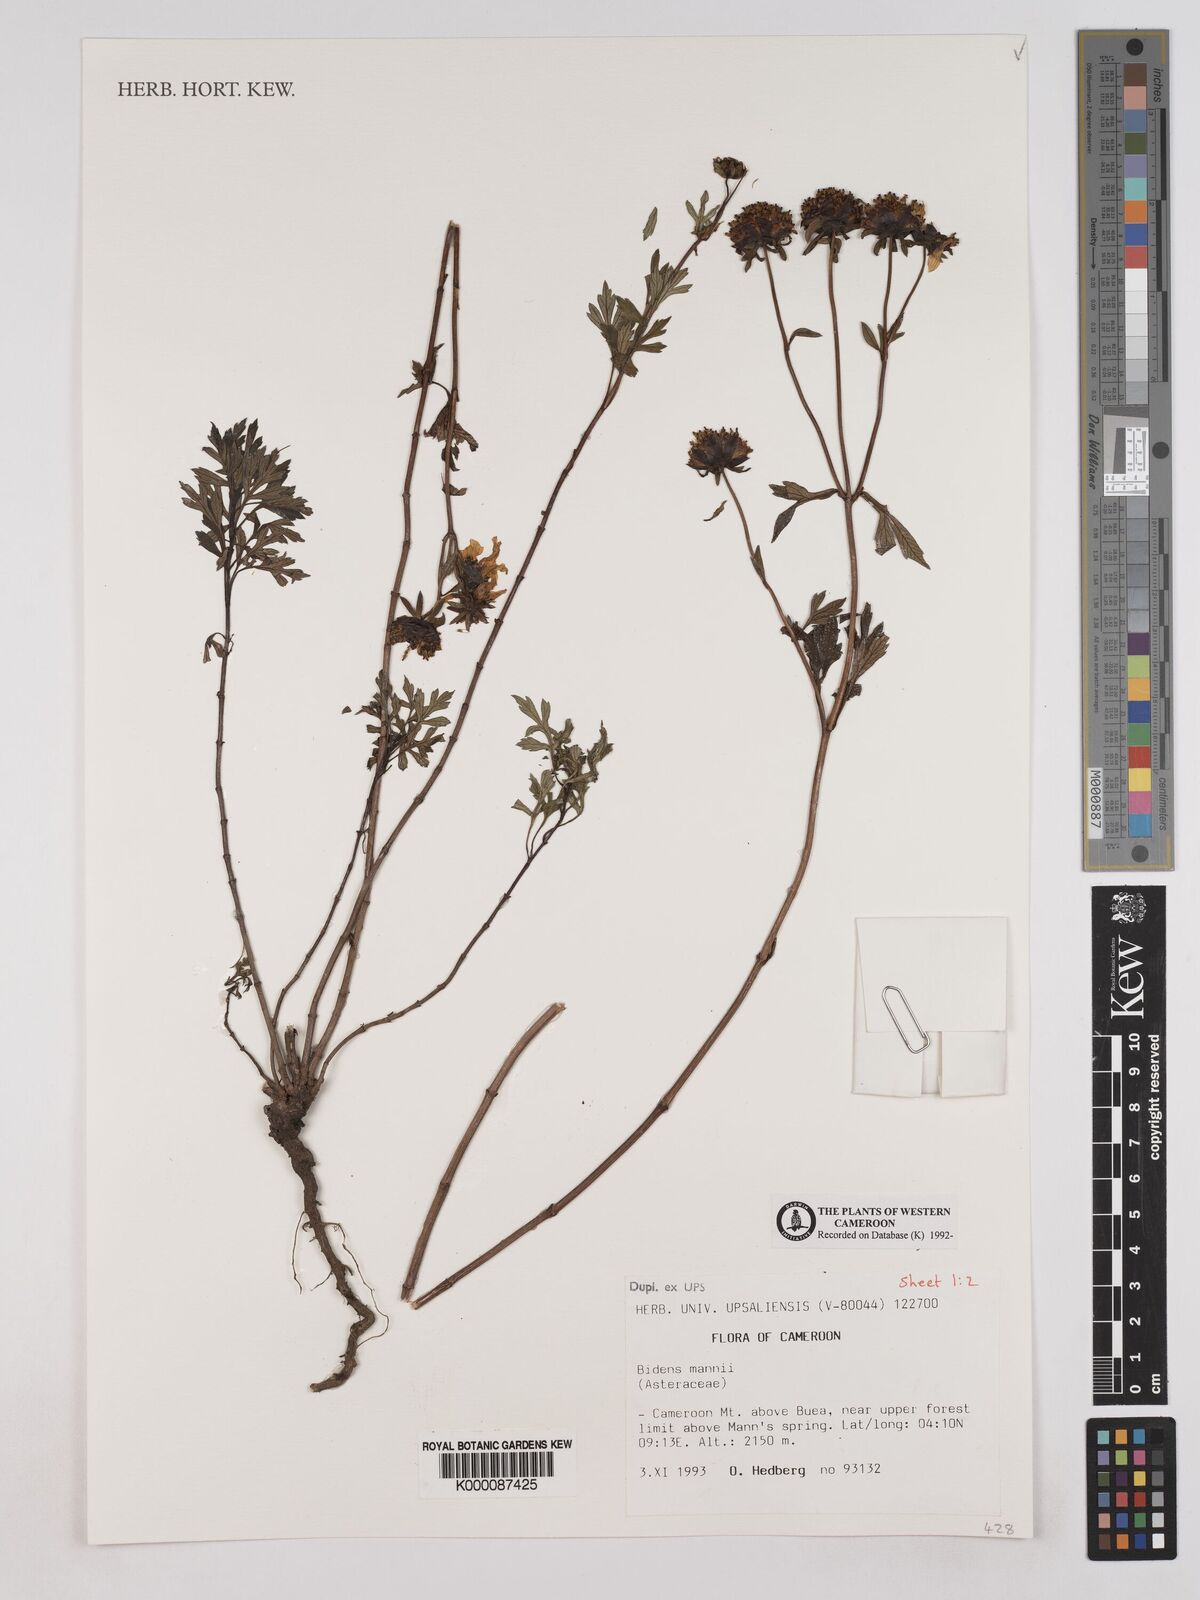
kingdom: Plantae
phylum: Tracheophyta
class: Magnoliopsida
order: Asterales
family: Asteraceae
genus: Bidens
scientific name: Bidens mannii
